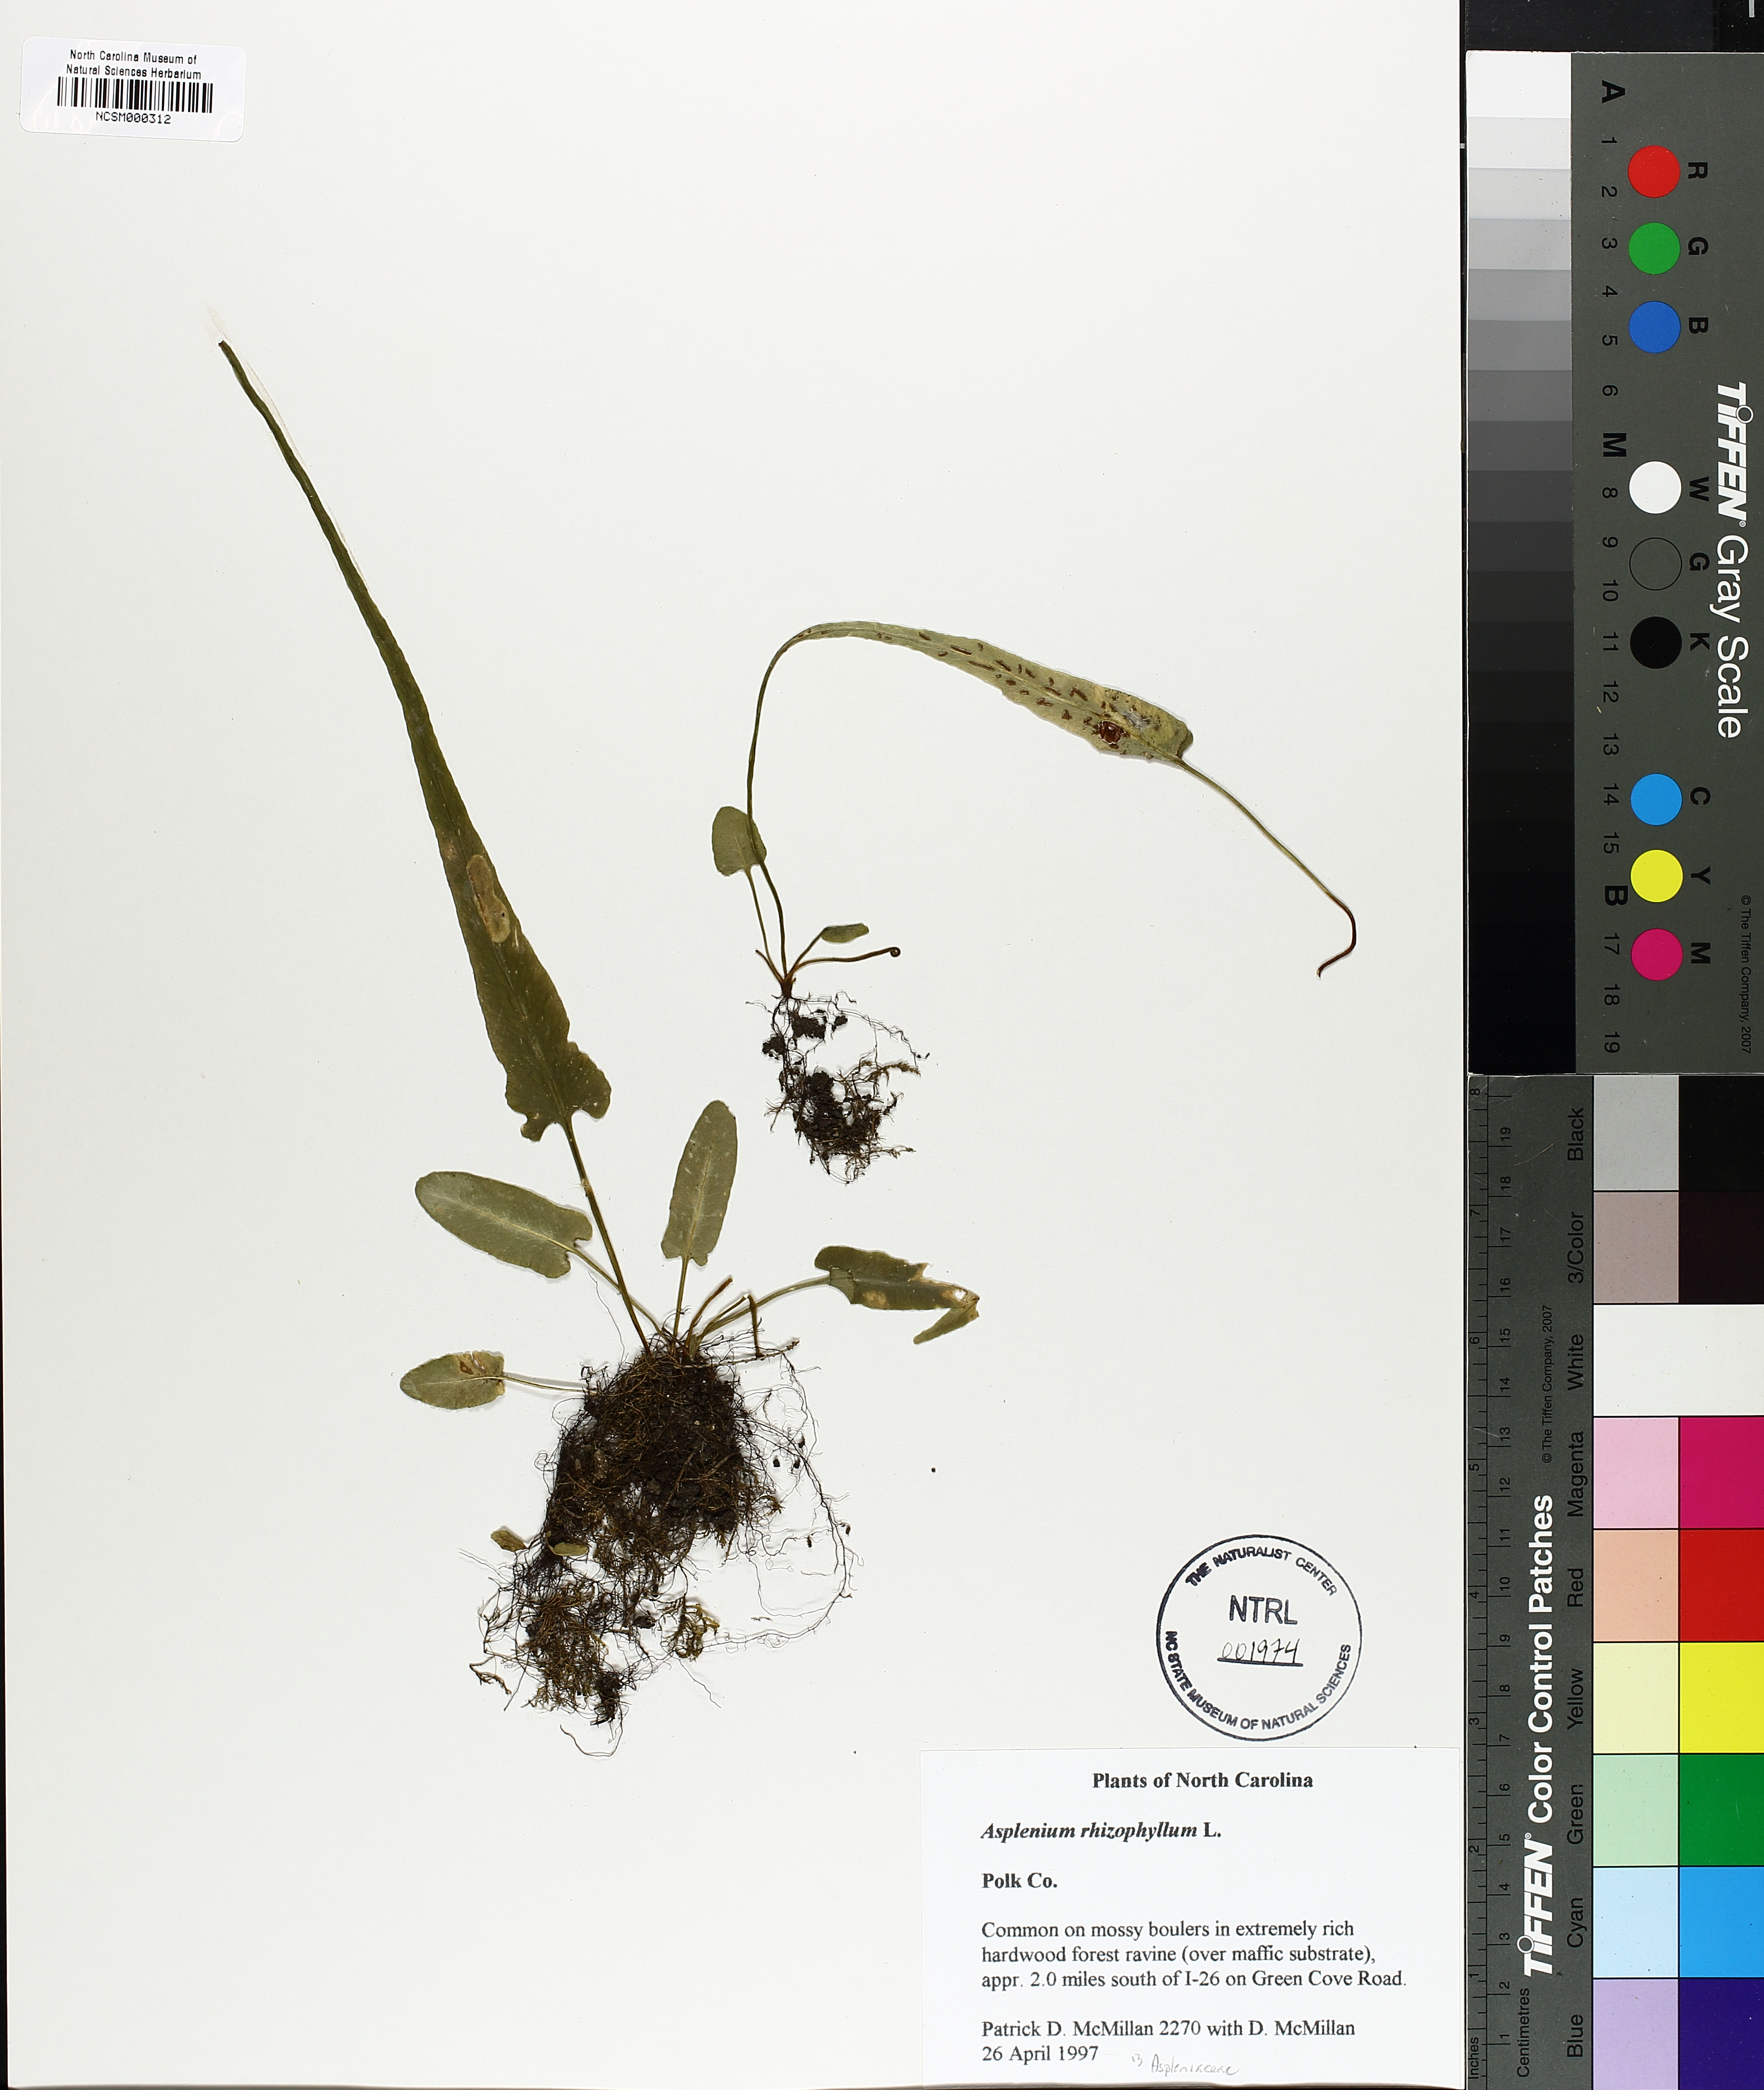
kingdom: Plantae
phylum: Tracheophyta
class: Polypodiopsida
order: Polypodiales
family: Aspleniaceae
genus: Asplenium
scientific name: Asplenium rhizophyllum
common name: Walking fern
